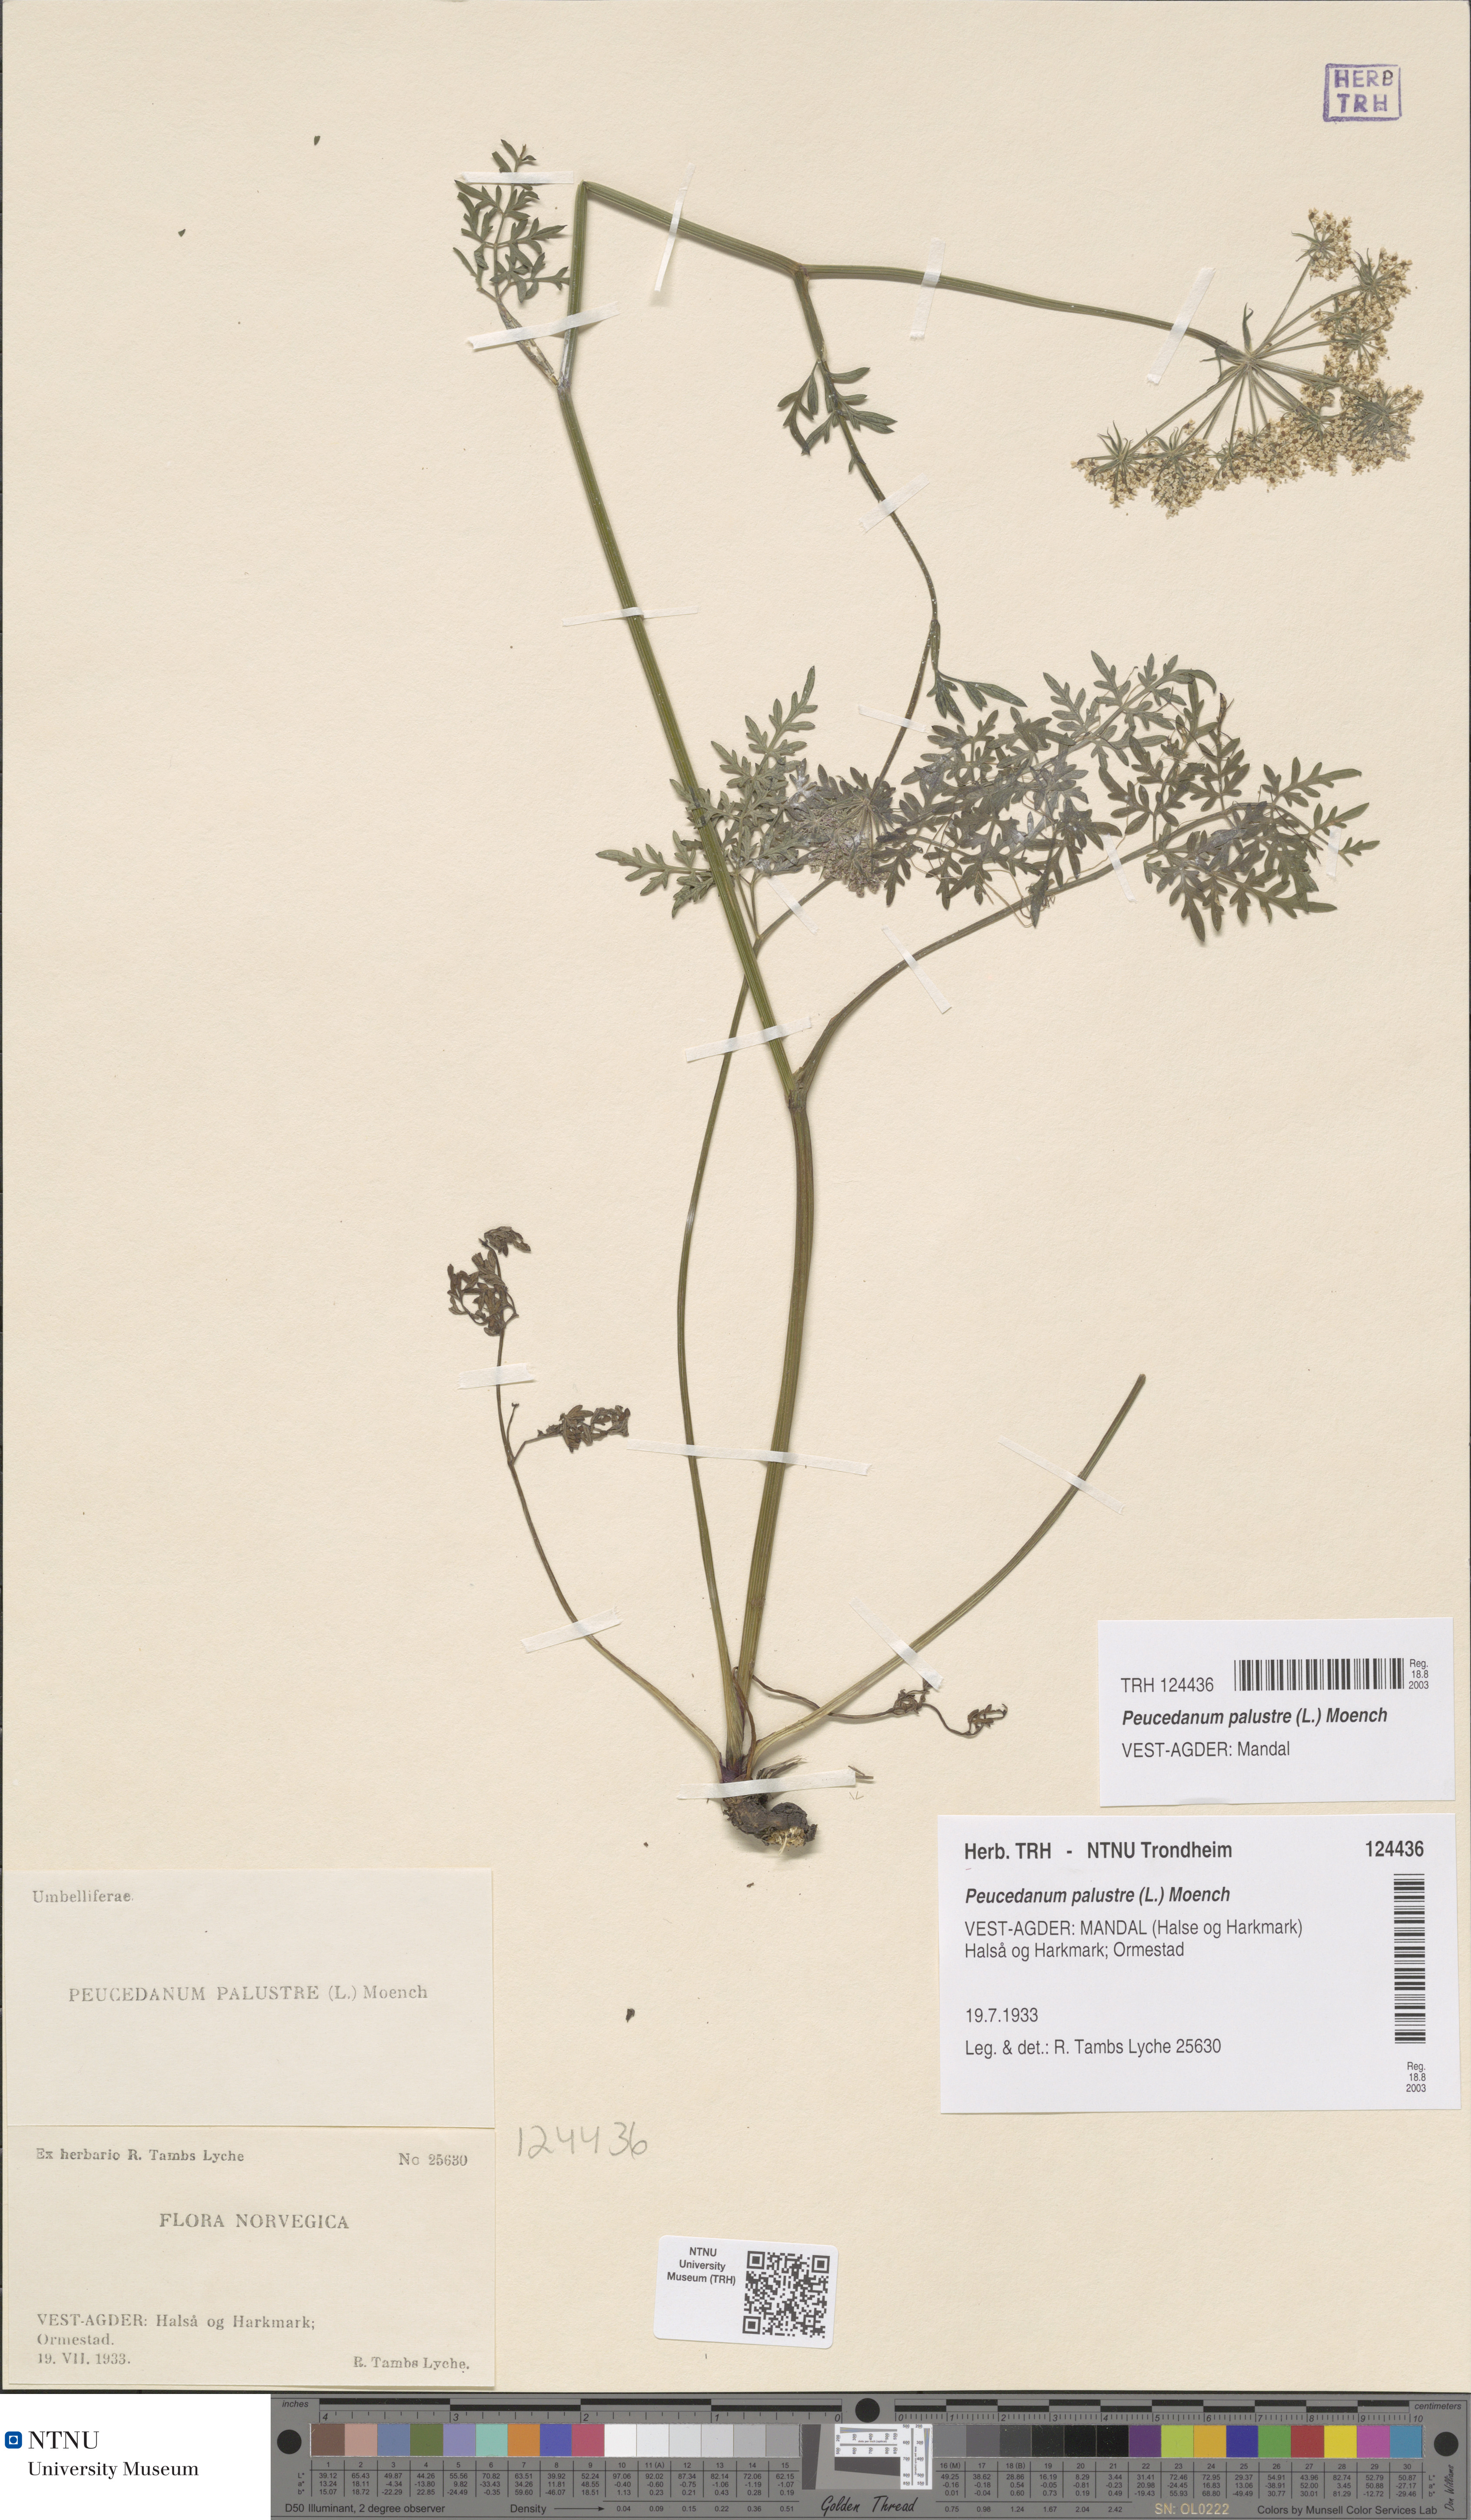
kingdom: Plantae
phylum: Tracheophyta
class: Magnoliopsida
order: Apiales
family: Apiaceae
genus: Thysselinum
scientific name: Thysselinum palustre
